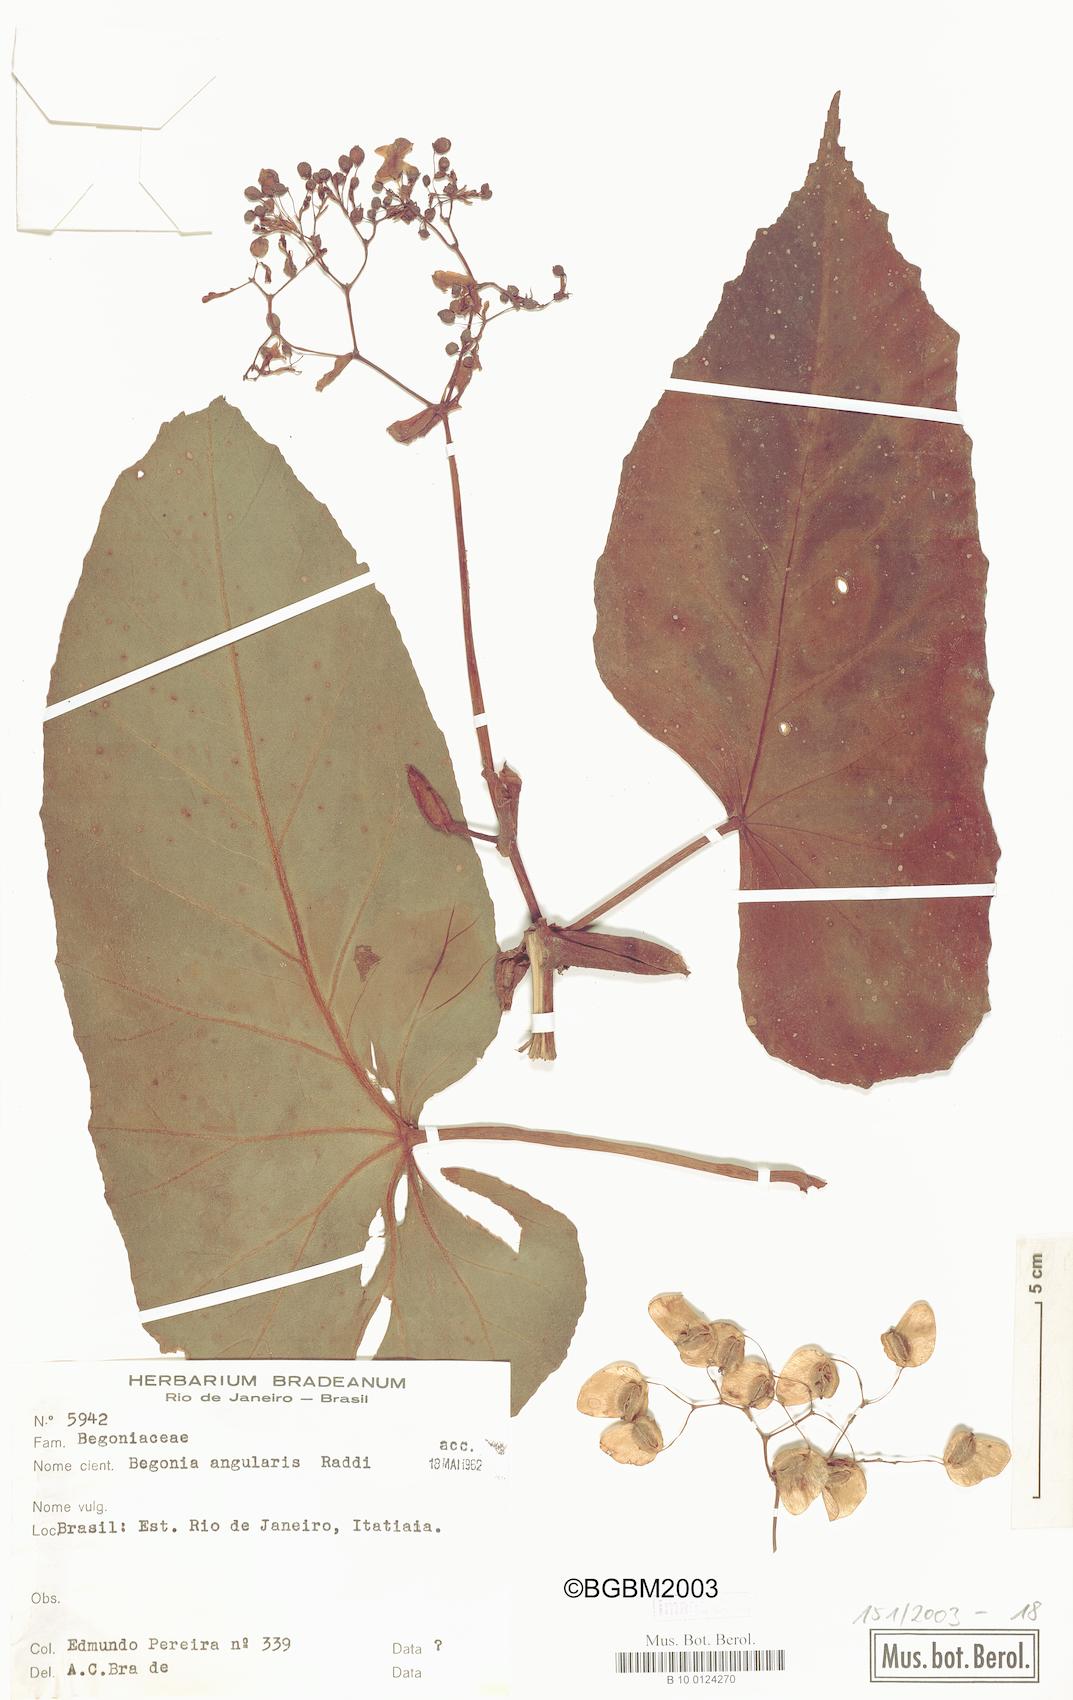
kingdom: Plantae
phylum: Tracheophyta
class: Magnoliopsida
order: Cucurbitales
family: Begoniaceae
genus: Begonia
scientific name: Begonia angularis
